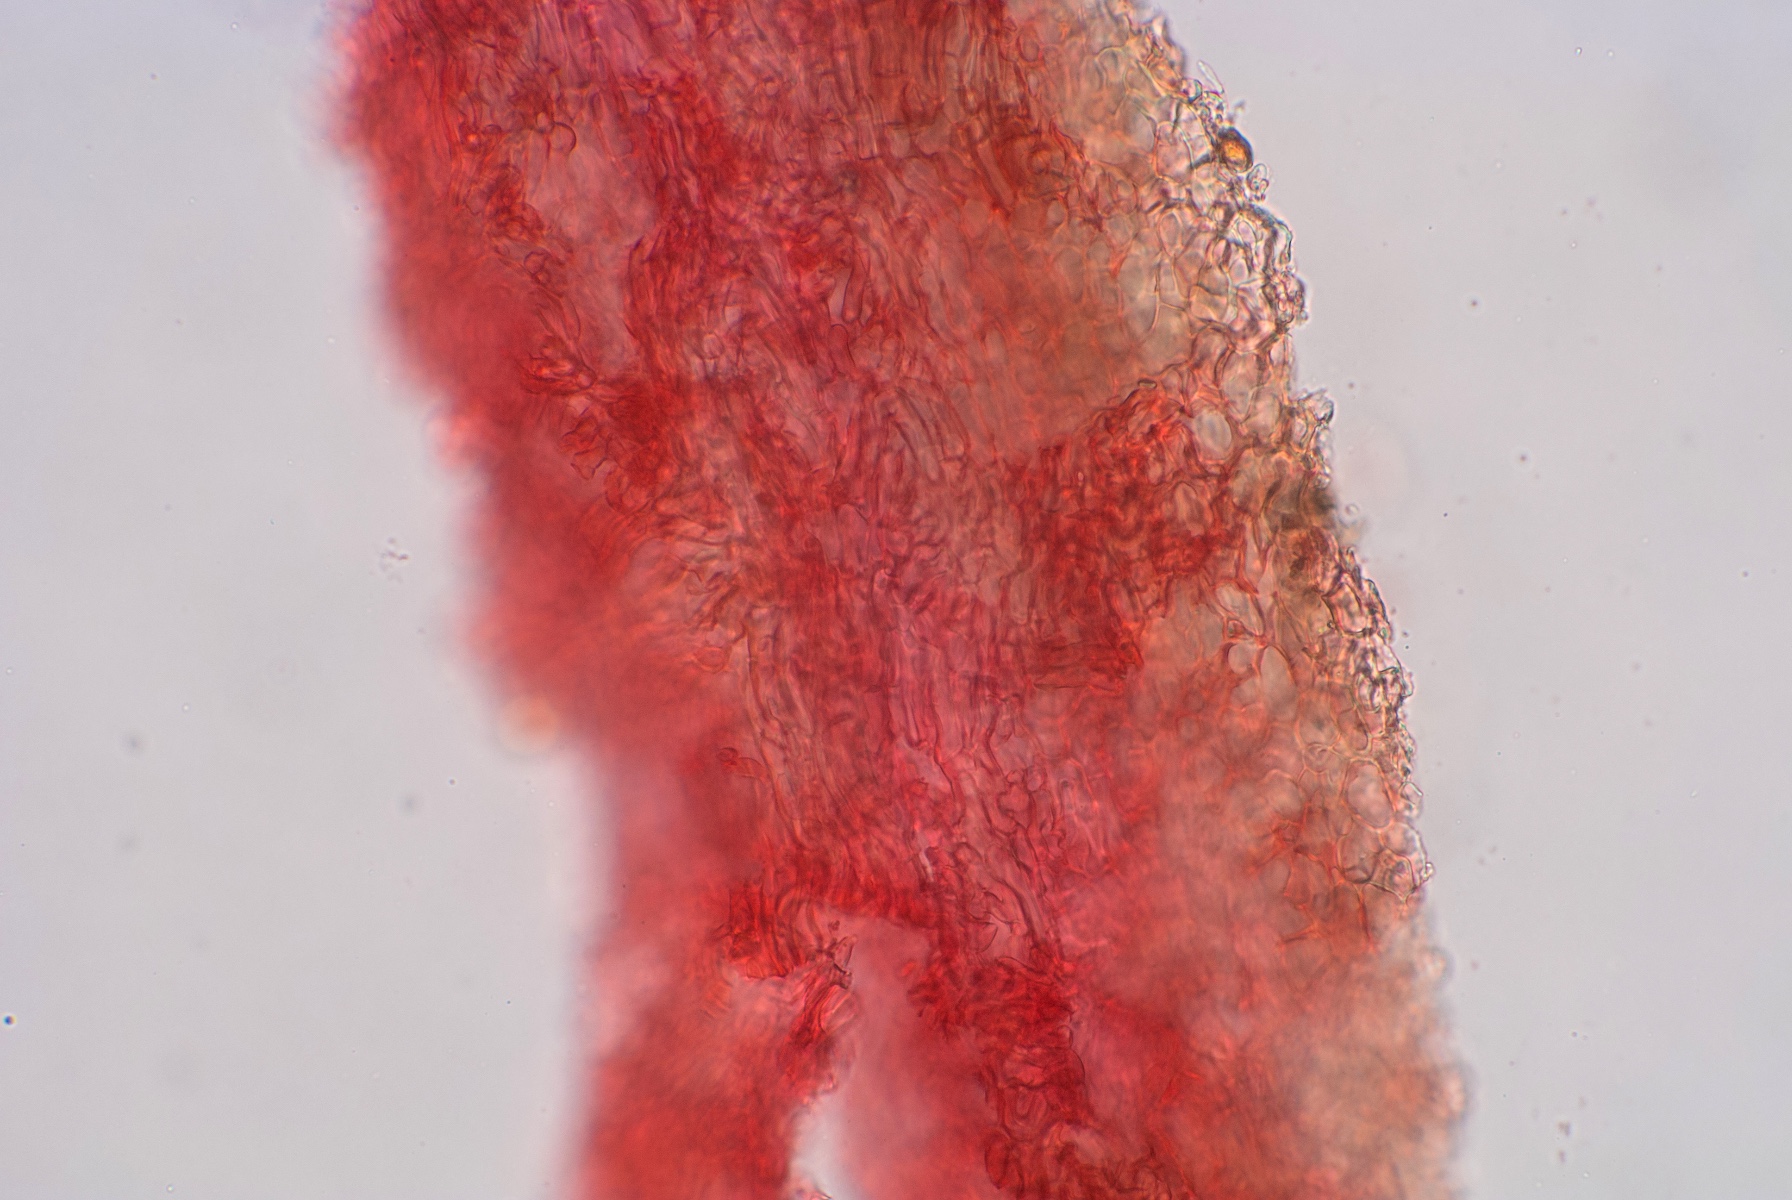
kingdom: Fungi
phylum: Ascomycota
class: Pezizomycetes
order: Pezizales
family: Tuberaceae
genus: Tuber
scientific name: Tuber
